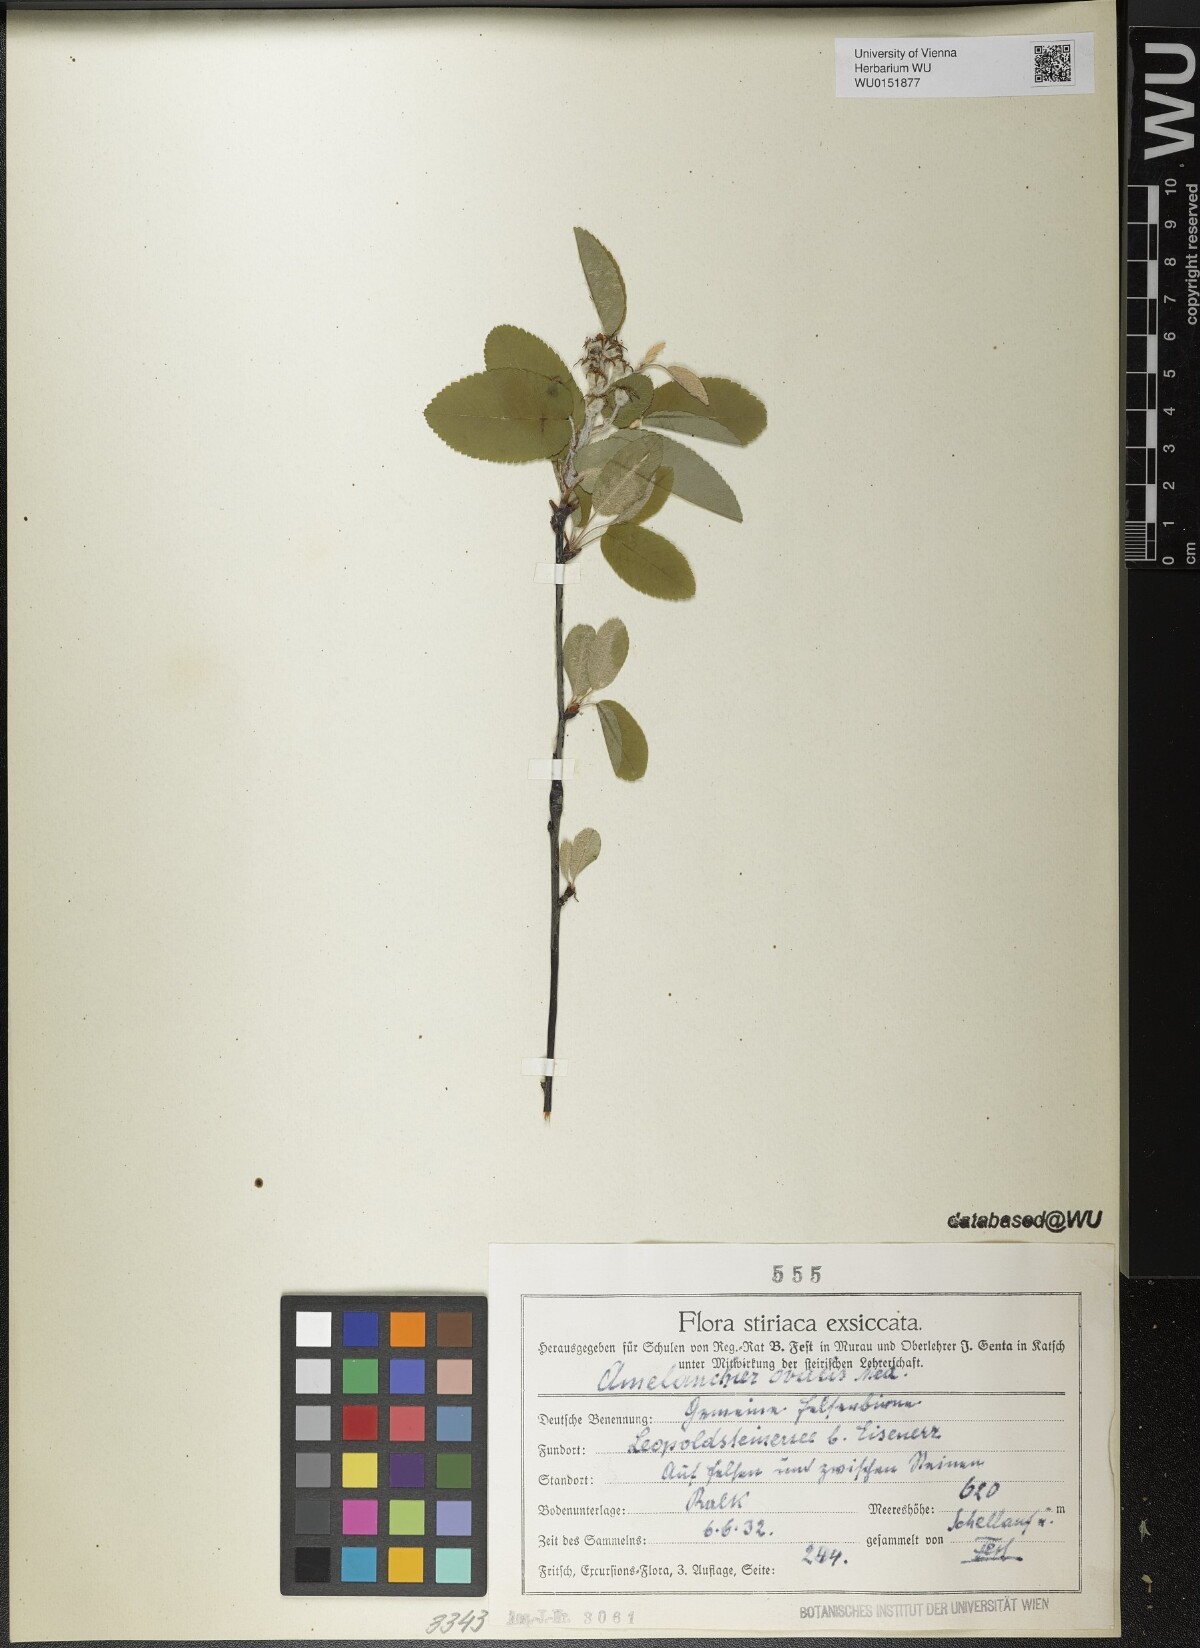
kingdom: Plantae
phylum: Tracheophyta
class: Magnoliopsida
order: Rosales
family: Rosaceae
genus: Amelanchier
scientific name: Amelanchier ovalis
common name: Serviceberry
